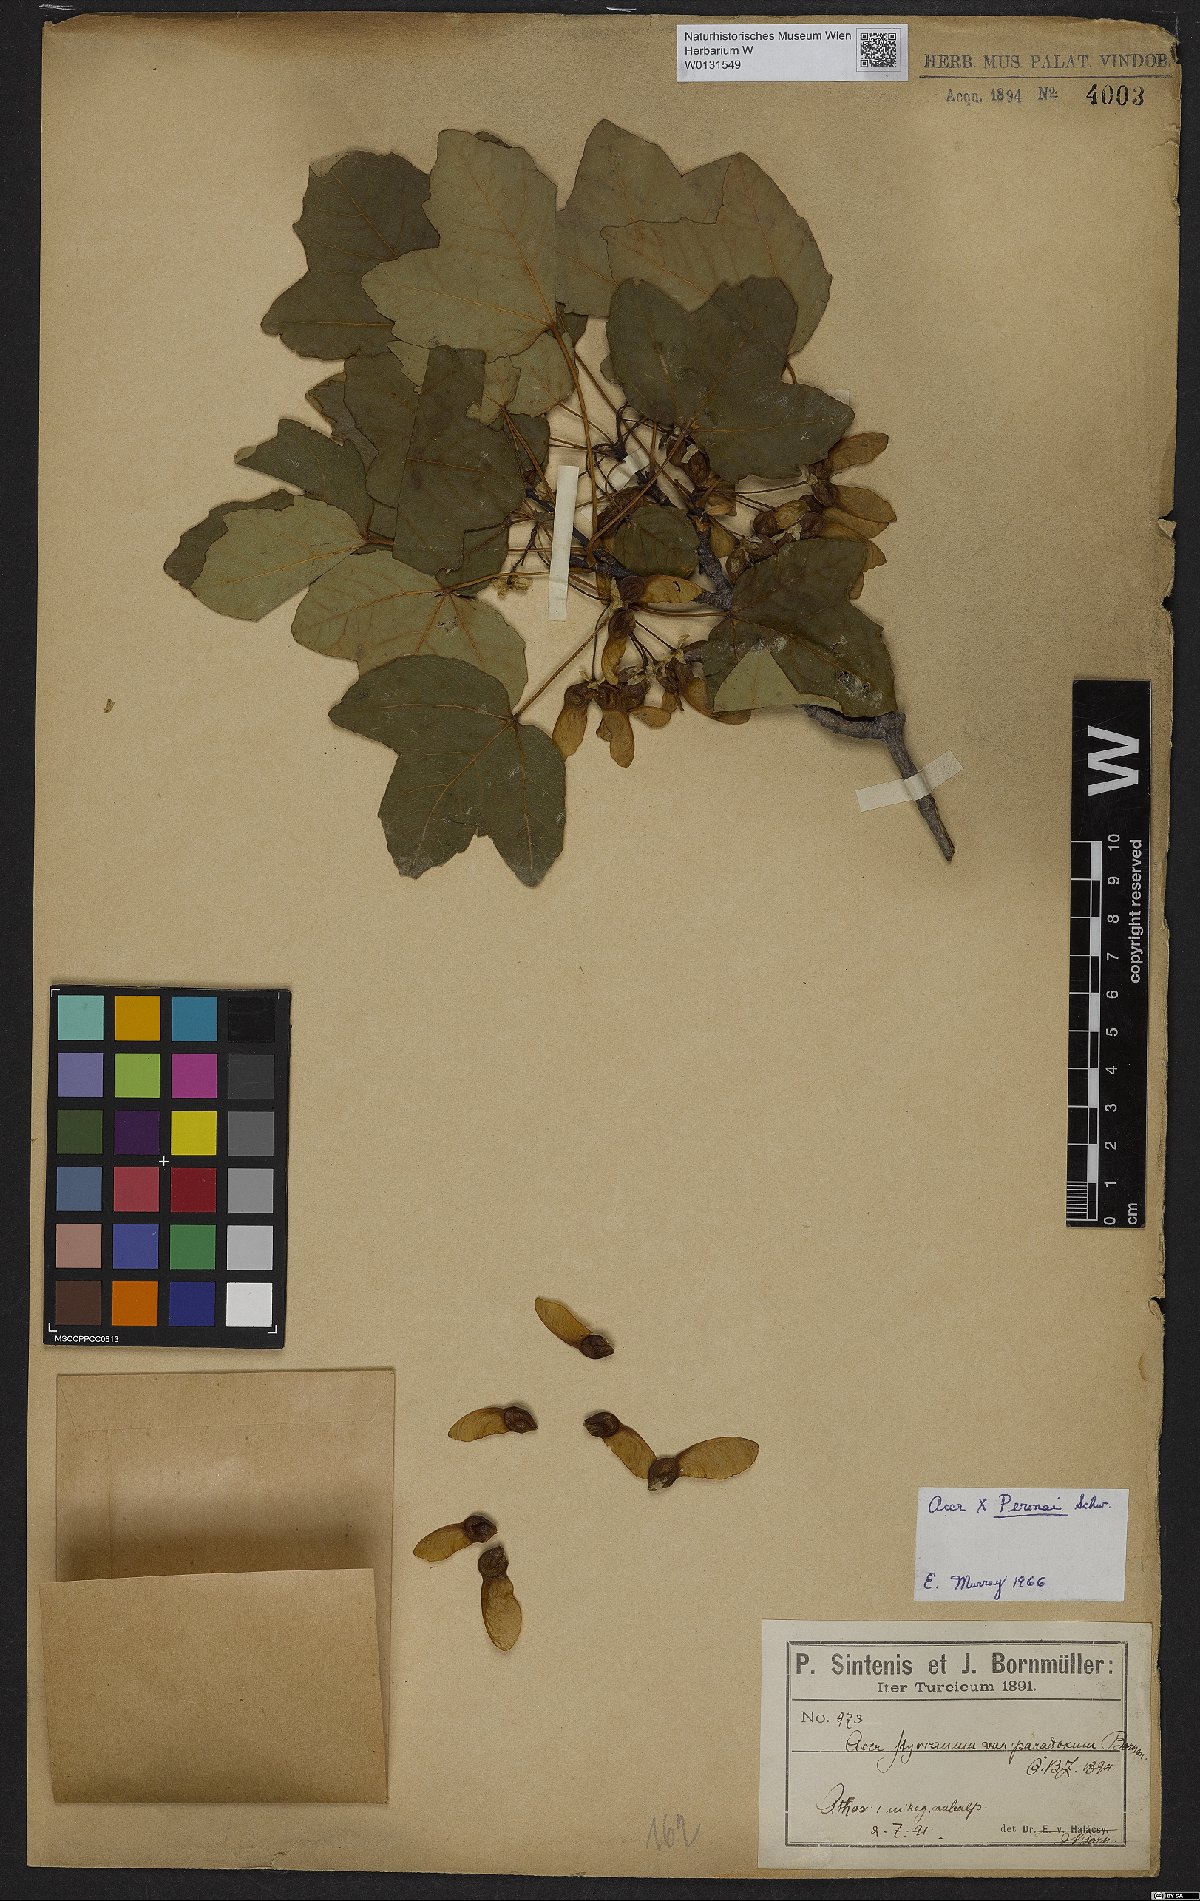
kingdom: Plantae
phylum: Tracheophyta
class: Magnoliopsida
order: Sapindales
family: Aceraceae
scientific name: Aceraceae
